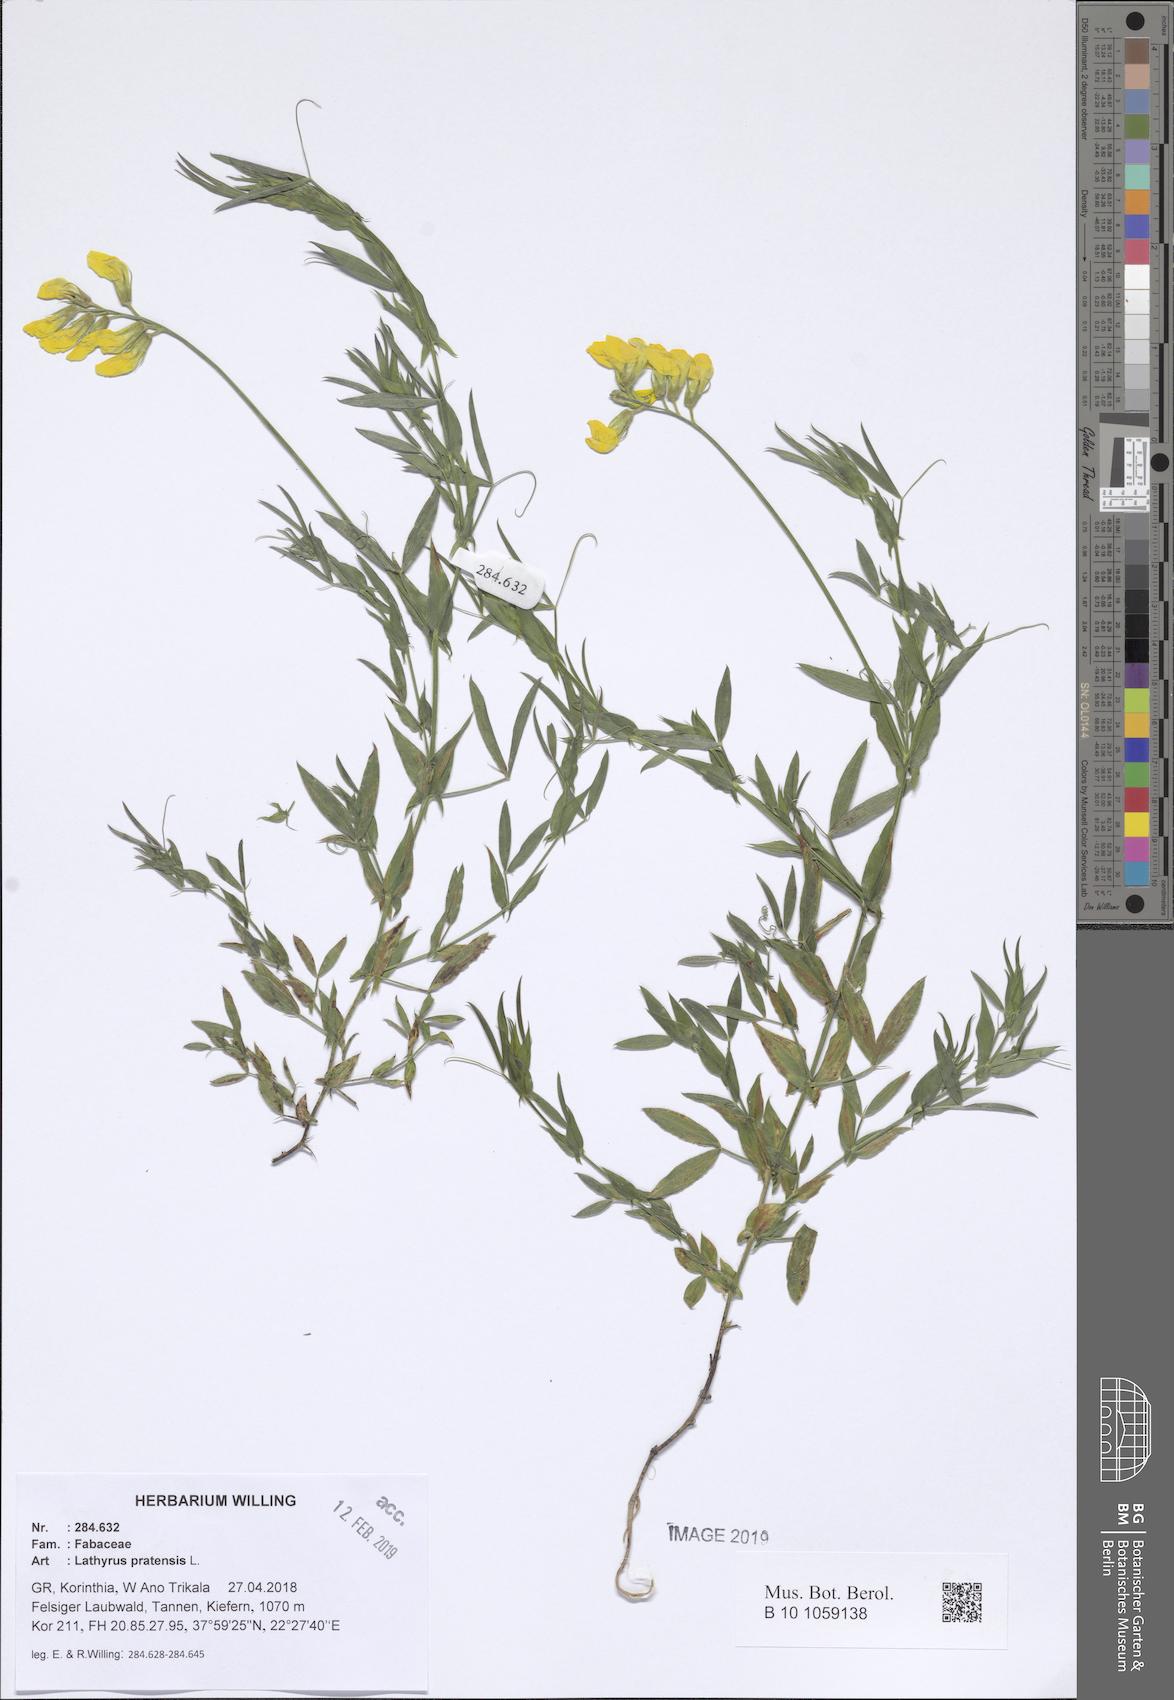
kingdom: Plantae
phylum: Tracheophyta
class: Magnoliopsida
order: Fabales
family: Fabaceae
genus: Lathyrus
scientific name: Lathyrus pratensis
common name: Meadow vetchling
